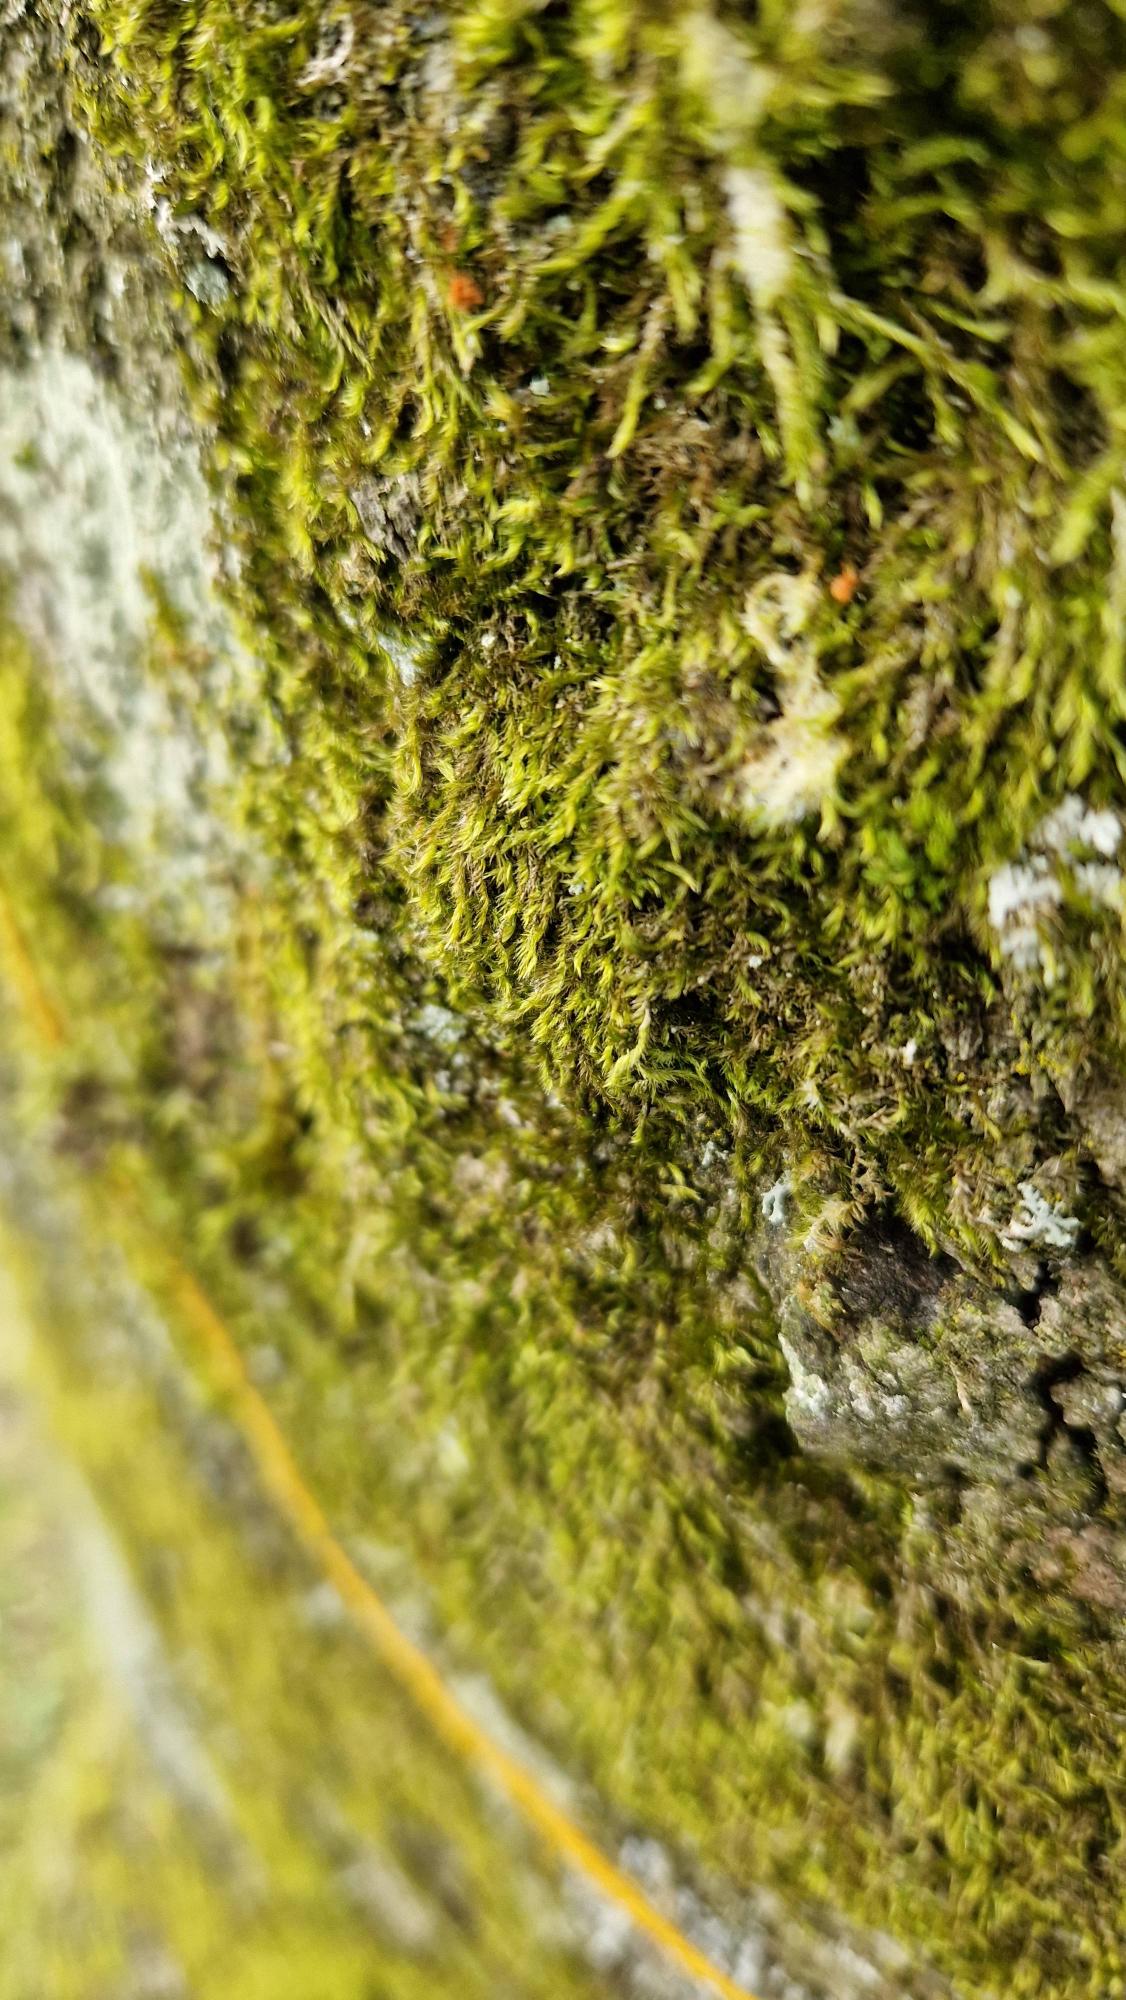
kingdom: Plantae
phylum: Bryophyta
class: Bryopsida
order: Hypnales
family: Hypnaceae
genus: Hypnum
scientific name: Hypnum
